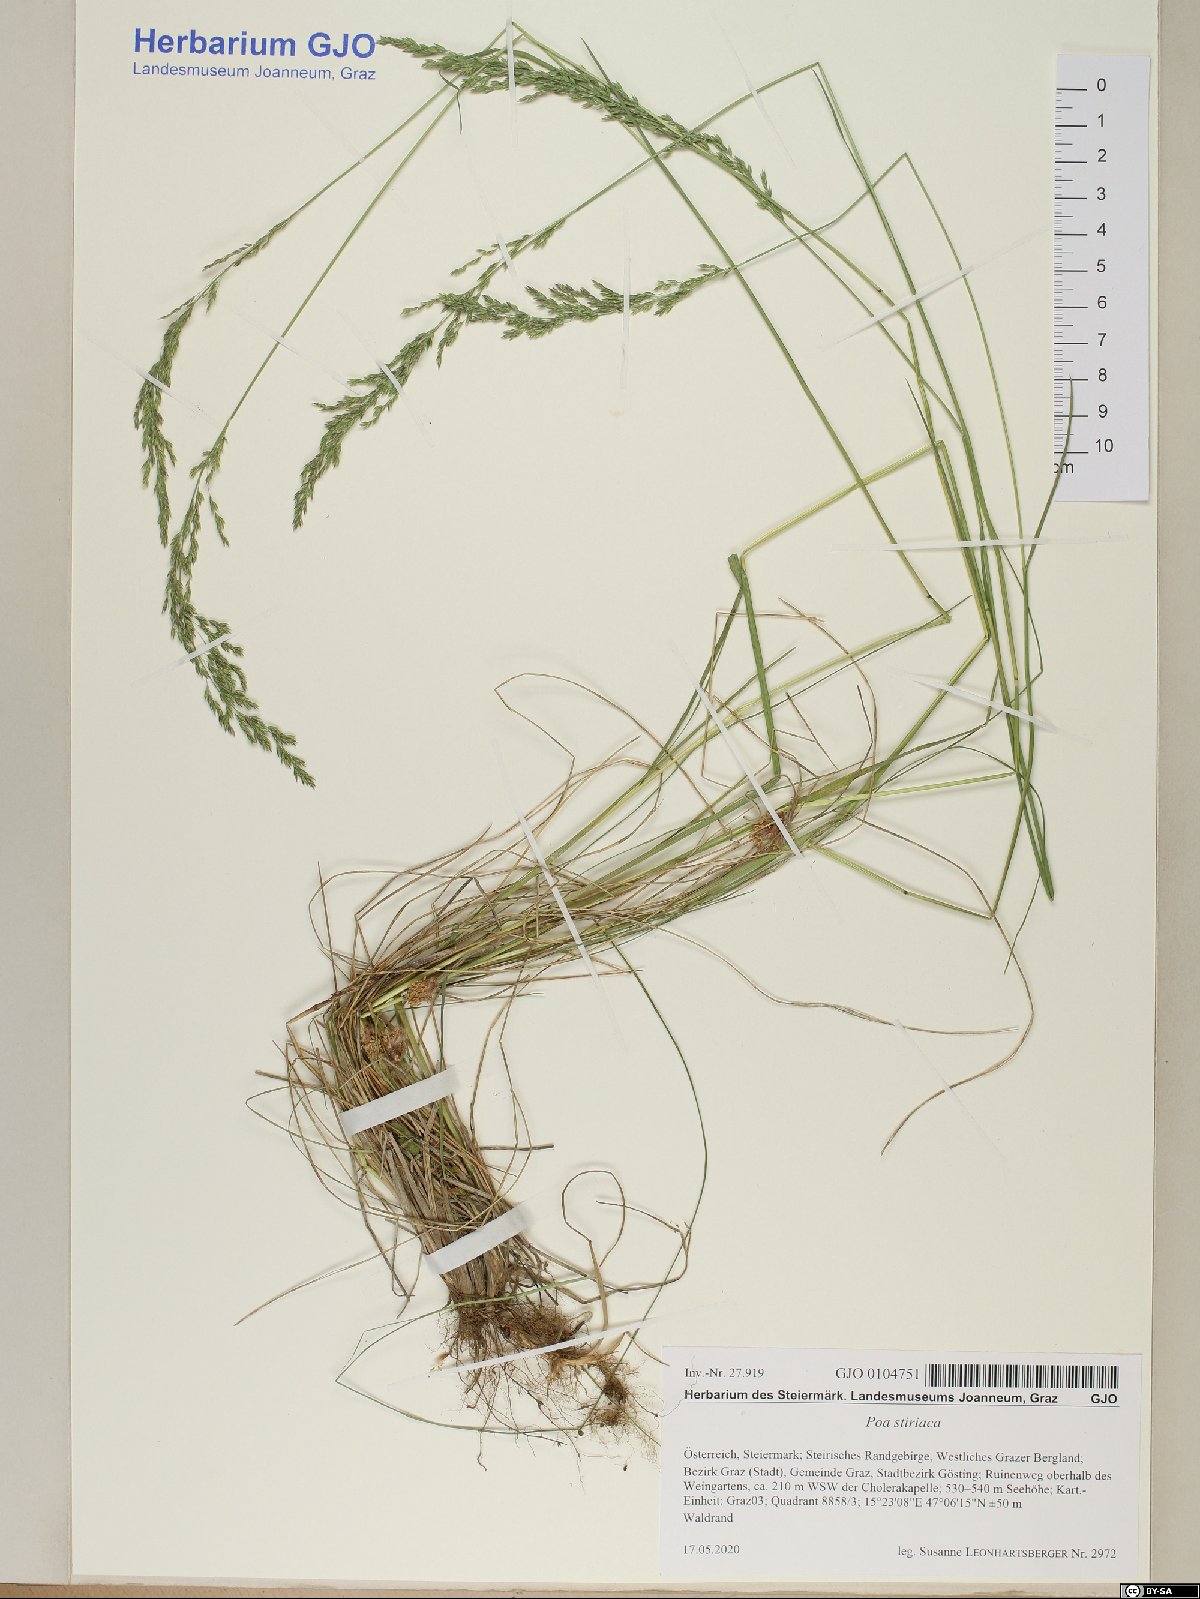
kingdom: Plantae
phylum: Tracheophyta
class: Liliopsida
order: Poales
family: Poaceae
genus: Poa
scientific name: Poa stiriaca
